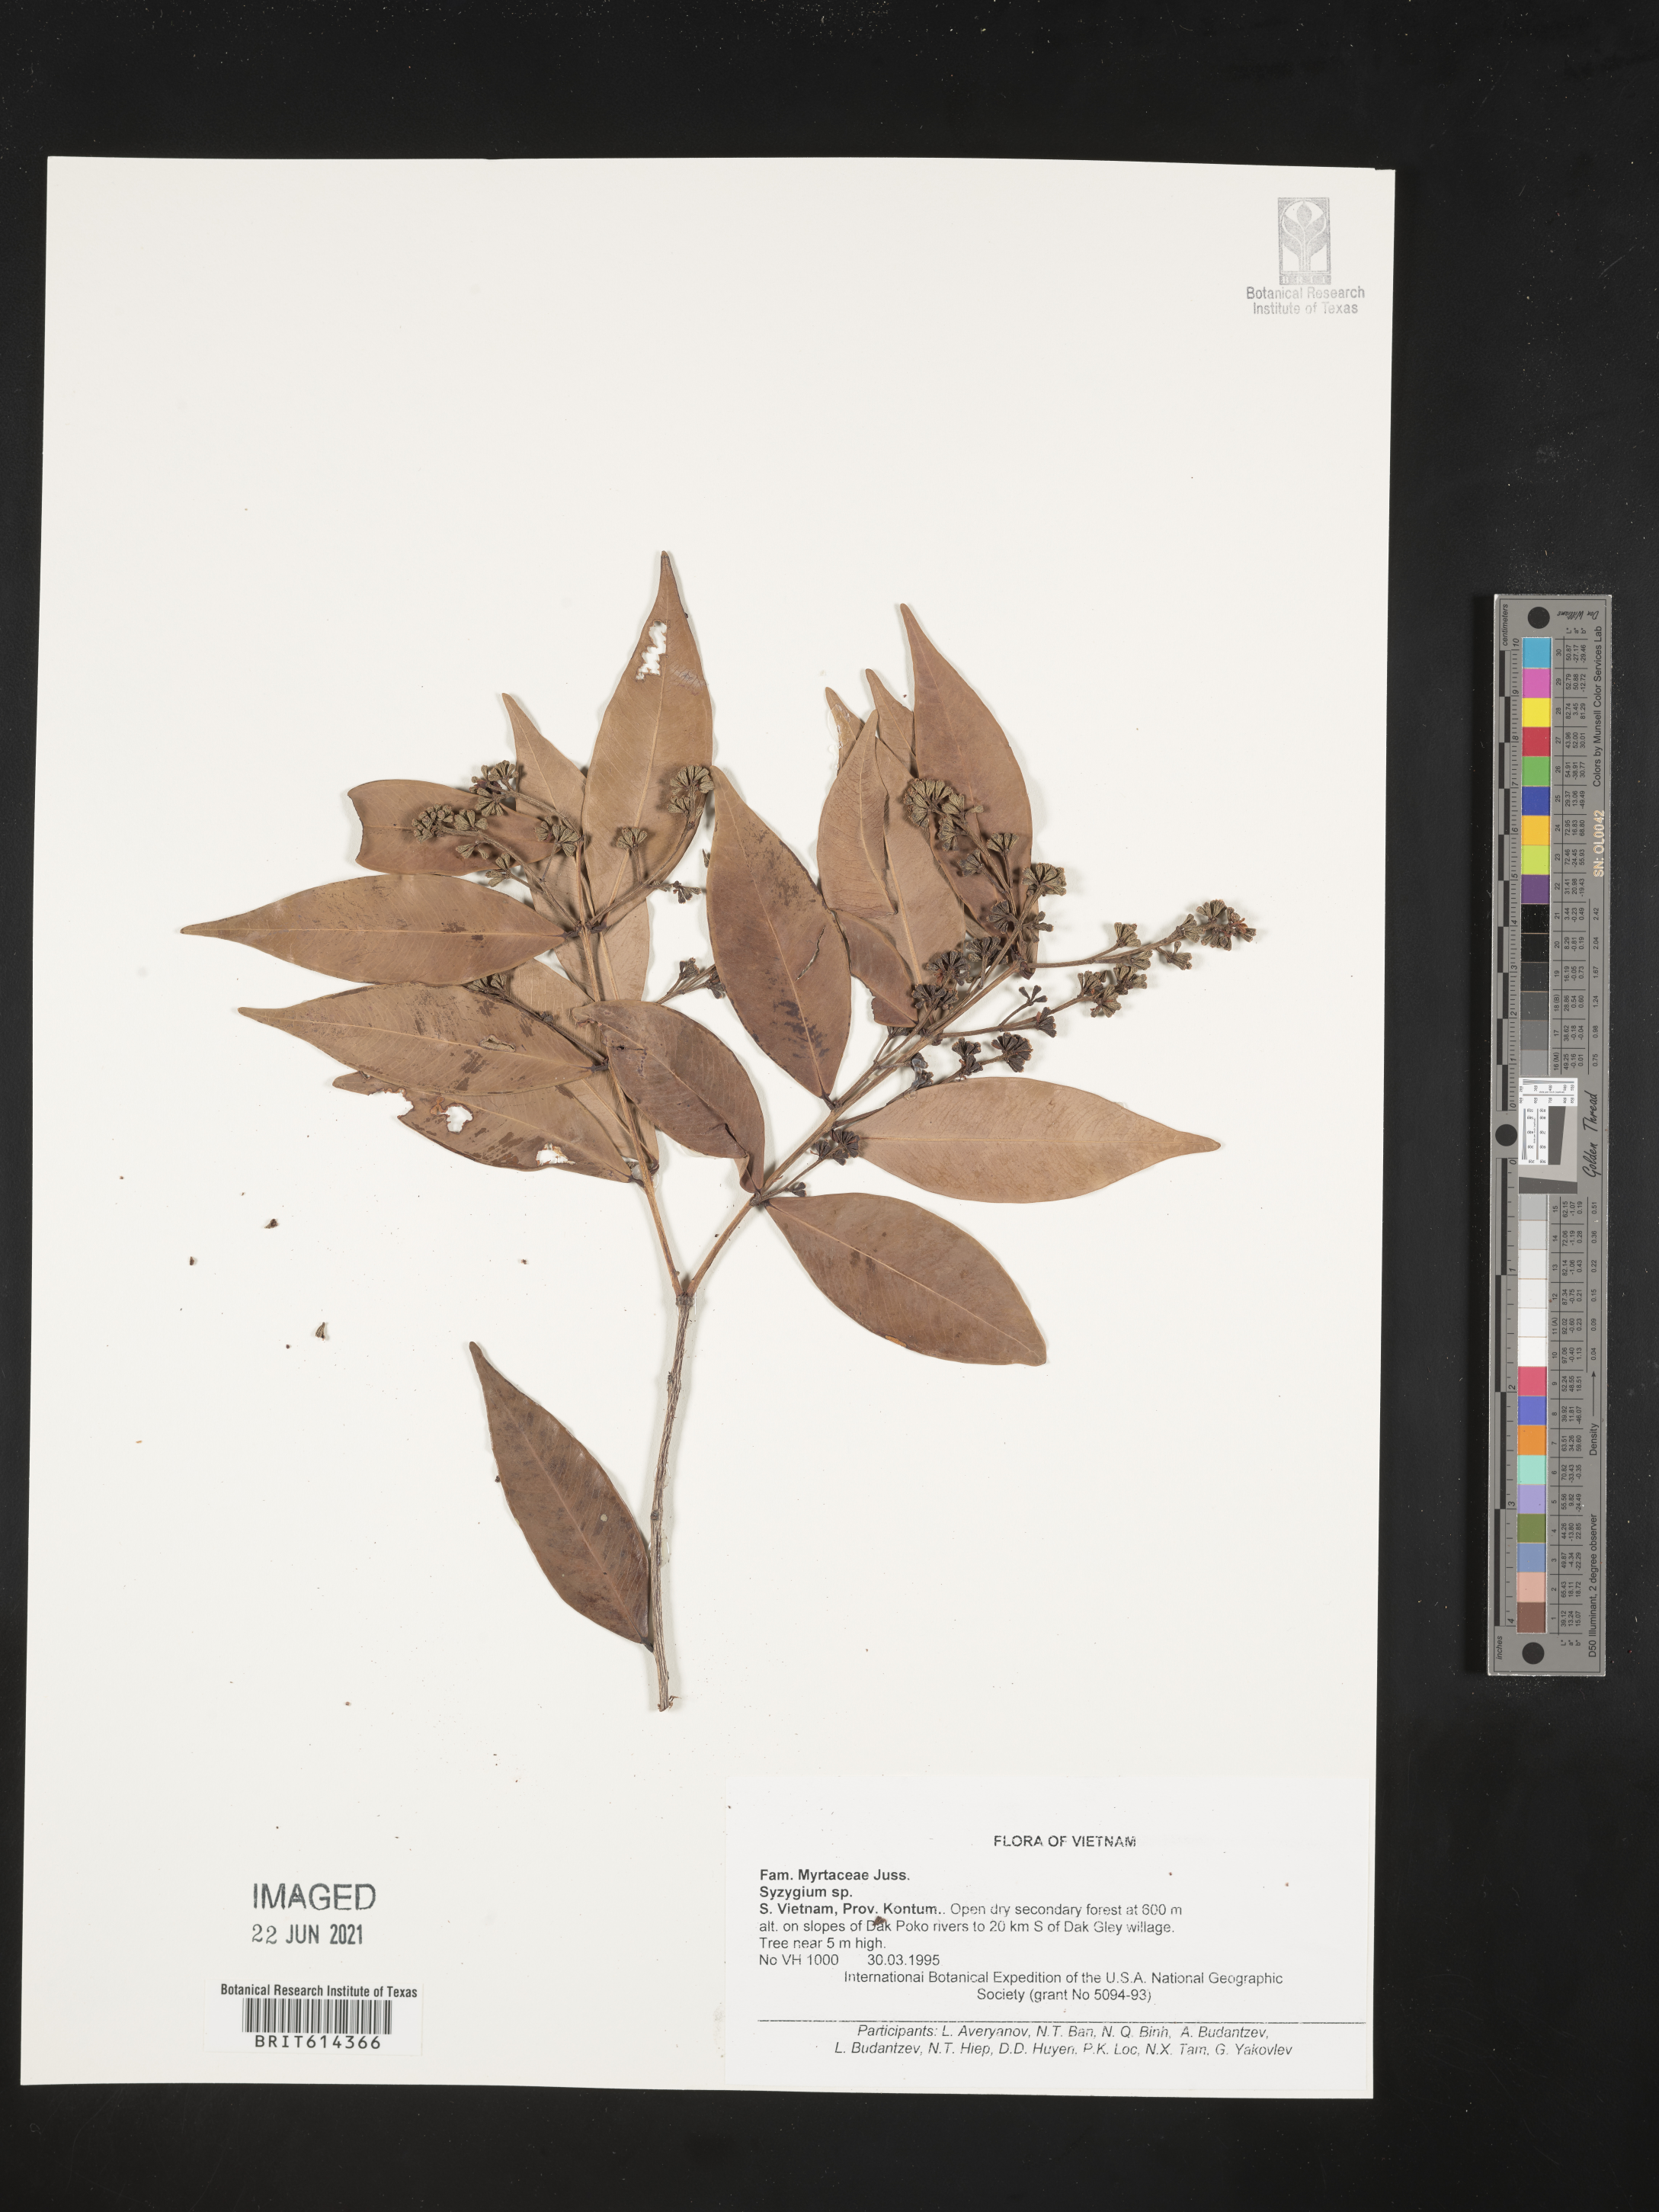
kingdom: Plantae
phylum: Tracheophyta
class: Magnoliopsida
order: Myrtales
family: Myrtaceae
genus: Syzygium
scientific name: Syzygium
